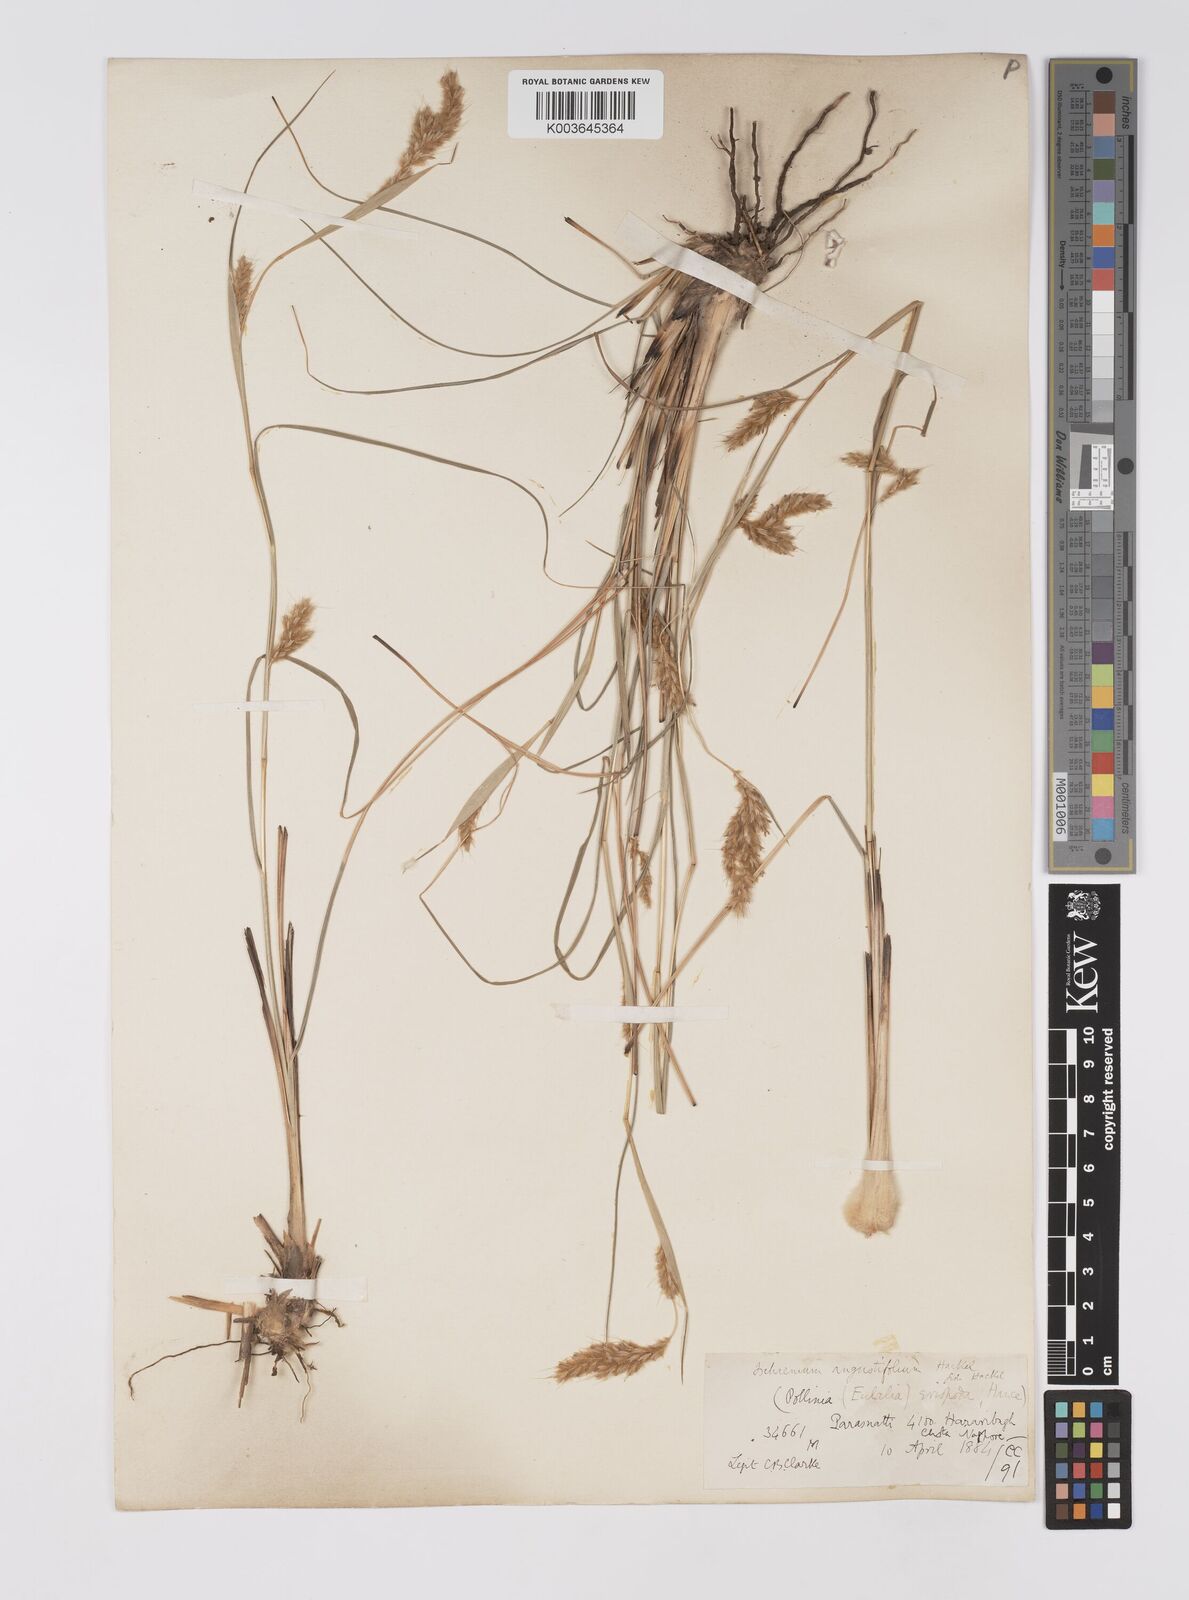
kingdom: Plantae
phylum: Tracheophyta
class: Liliopsida
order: Poales
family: Poaceae
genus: Eulaliopsis
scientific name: Eulaliopsis binata
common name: Baib grass
